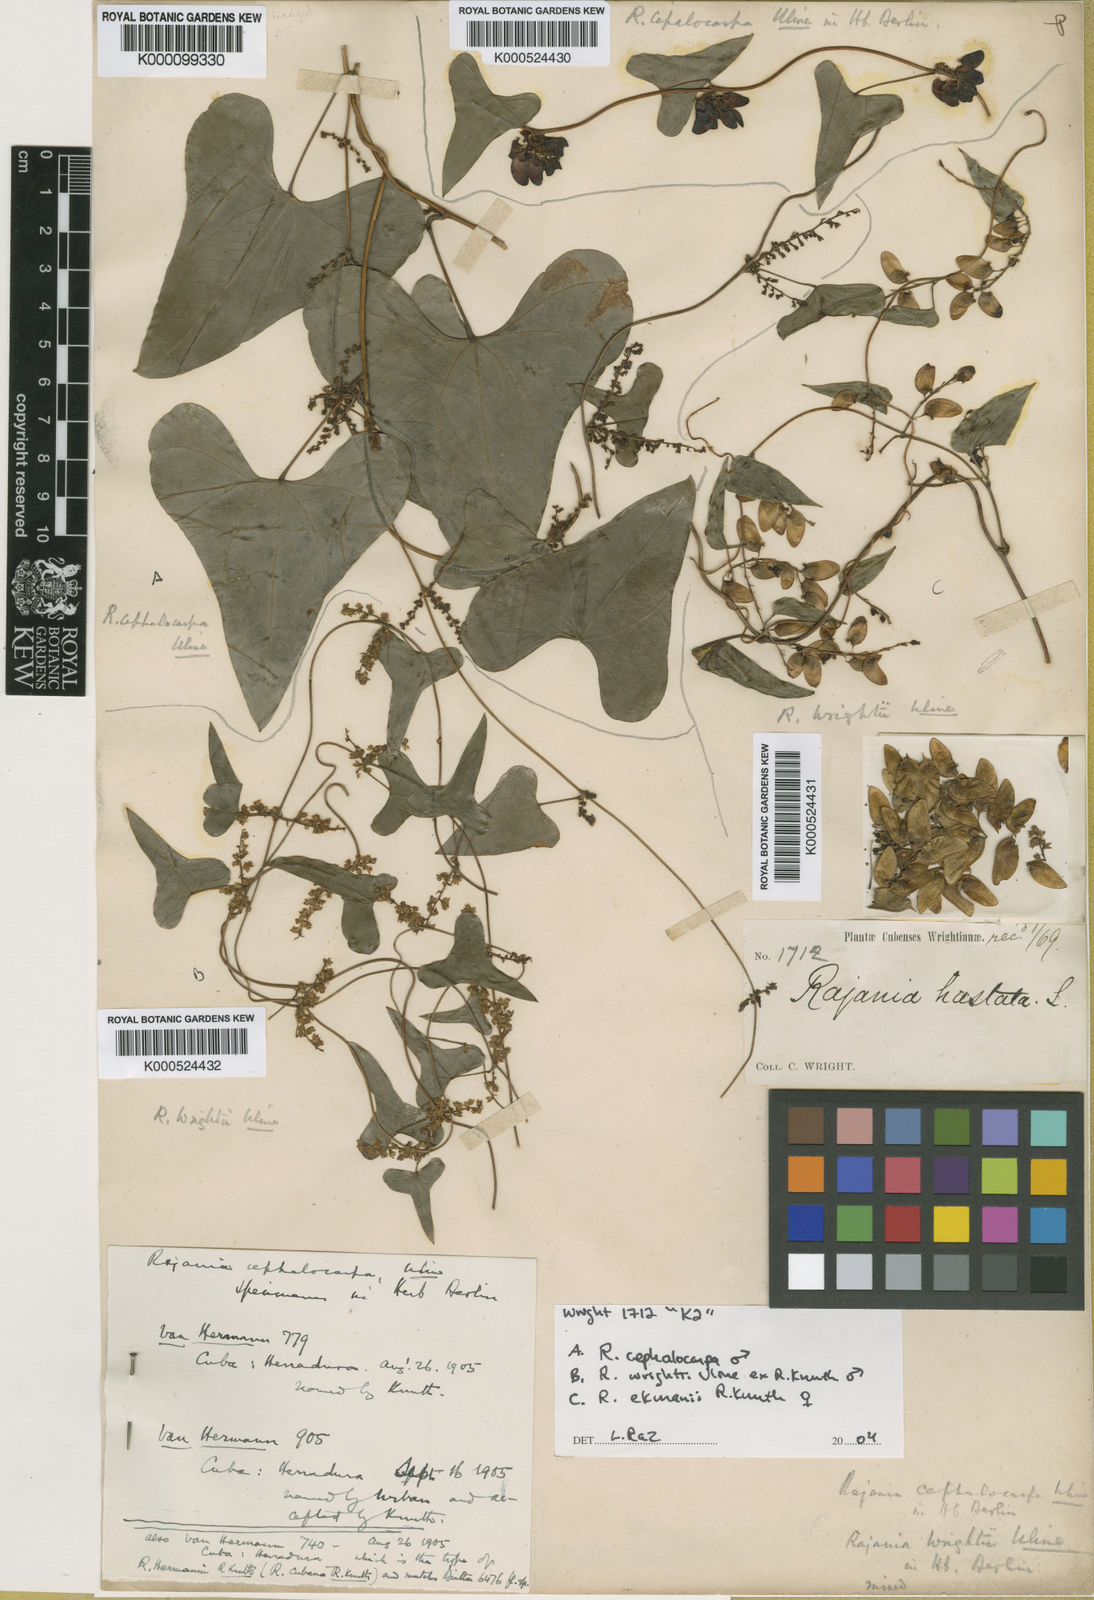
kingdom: Plantae
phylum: Tracheophyta
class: Liliopsida
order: Dioscoreales
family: Dioscoreaceae
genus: Dioscorea
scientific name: Dioscorea cephalocarpa
